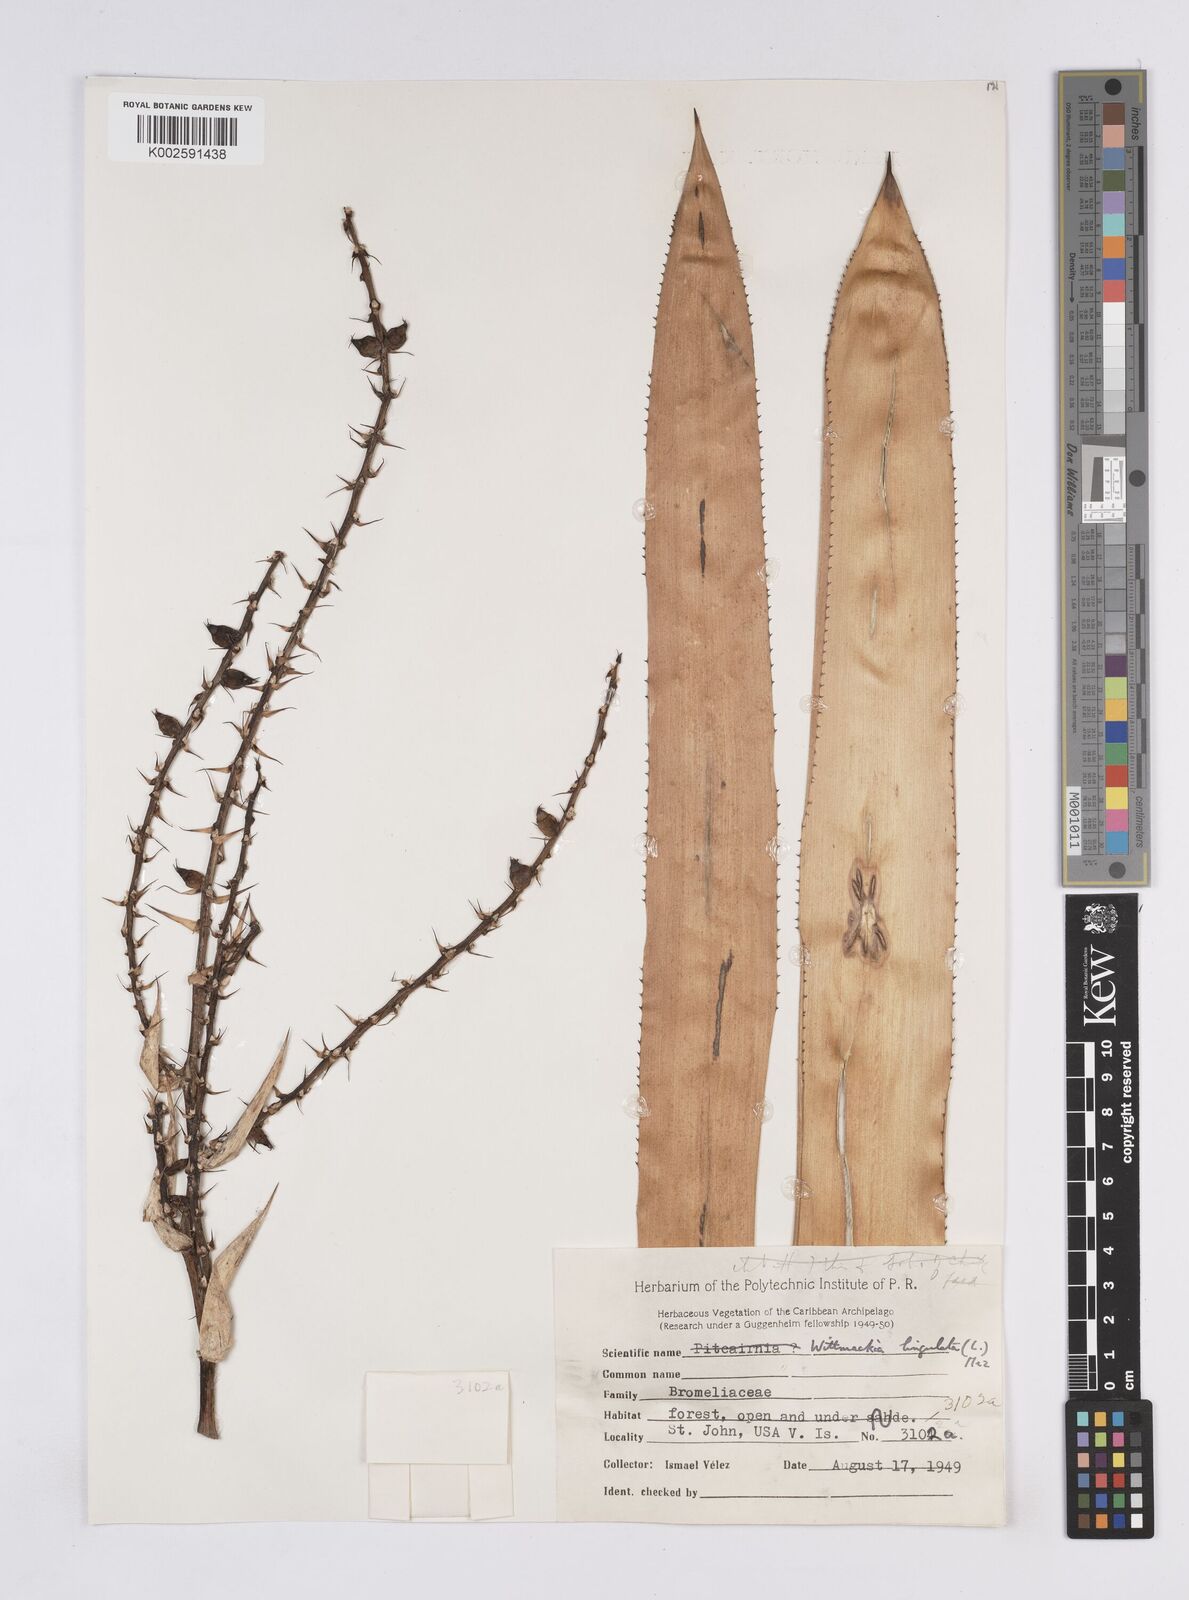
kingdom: Plantae
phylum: Tracheophyta
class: Liliopsida
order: Poales
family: Bromeliaceae
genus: Wittmackia
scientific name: Wittmackia lingulata
